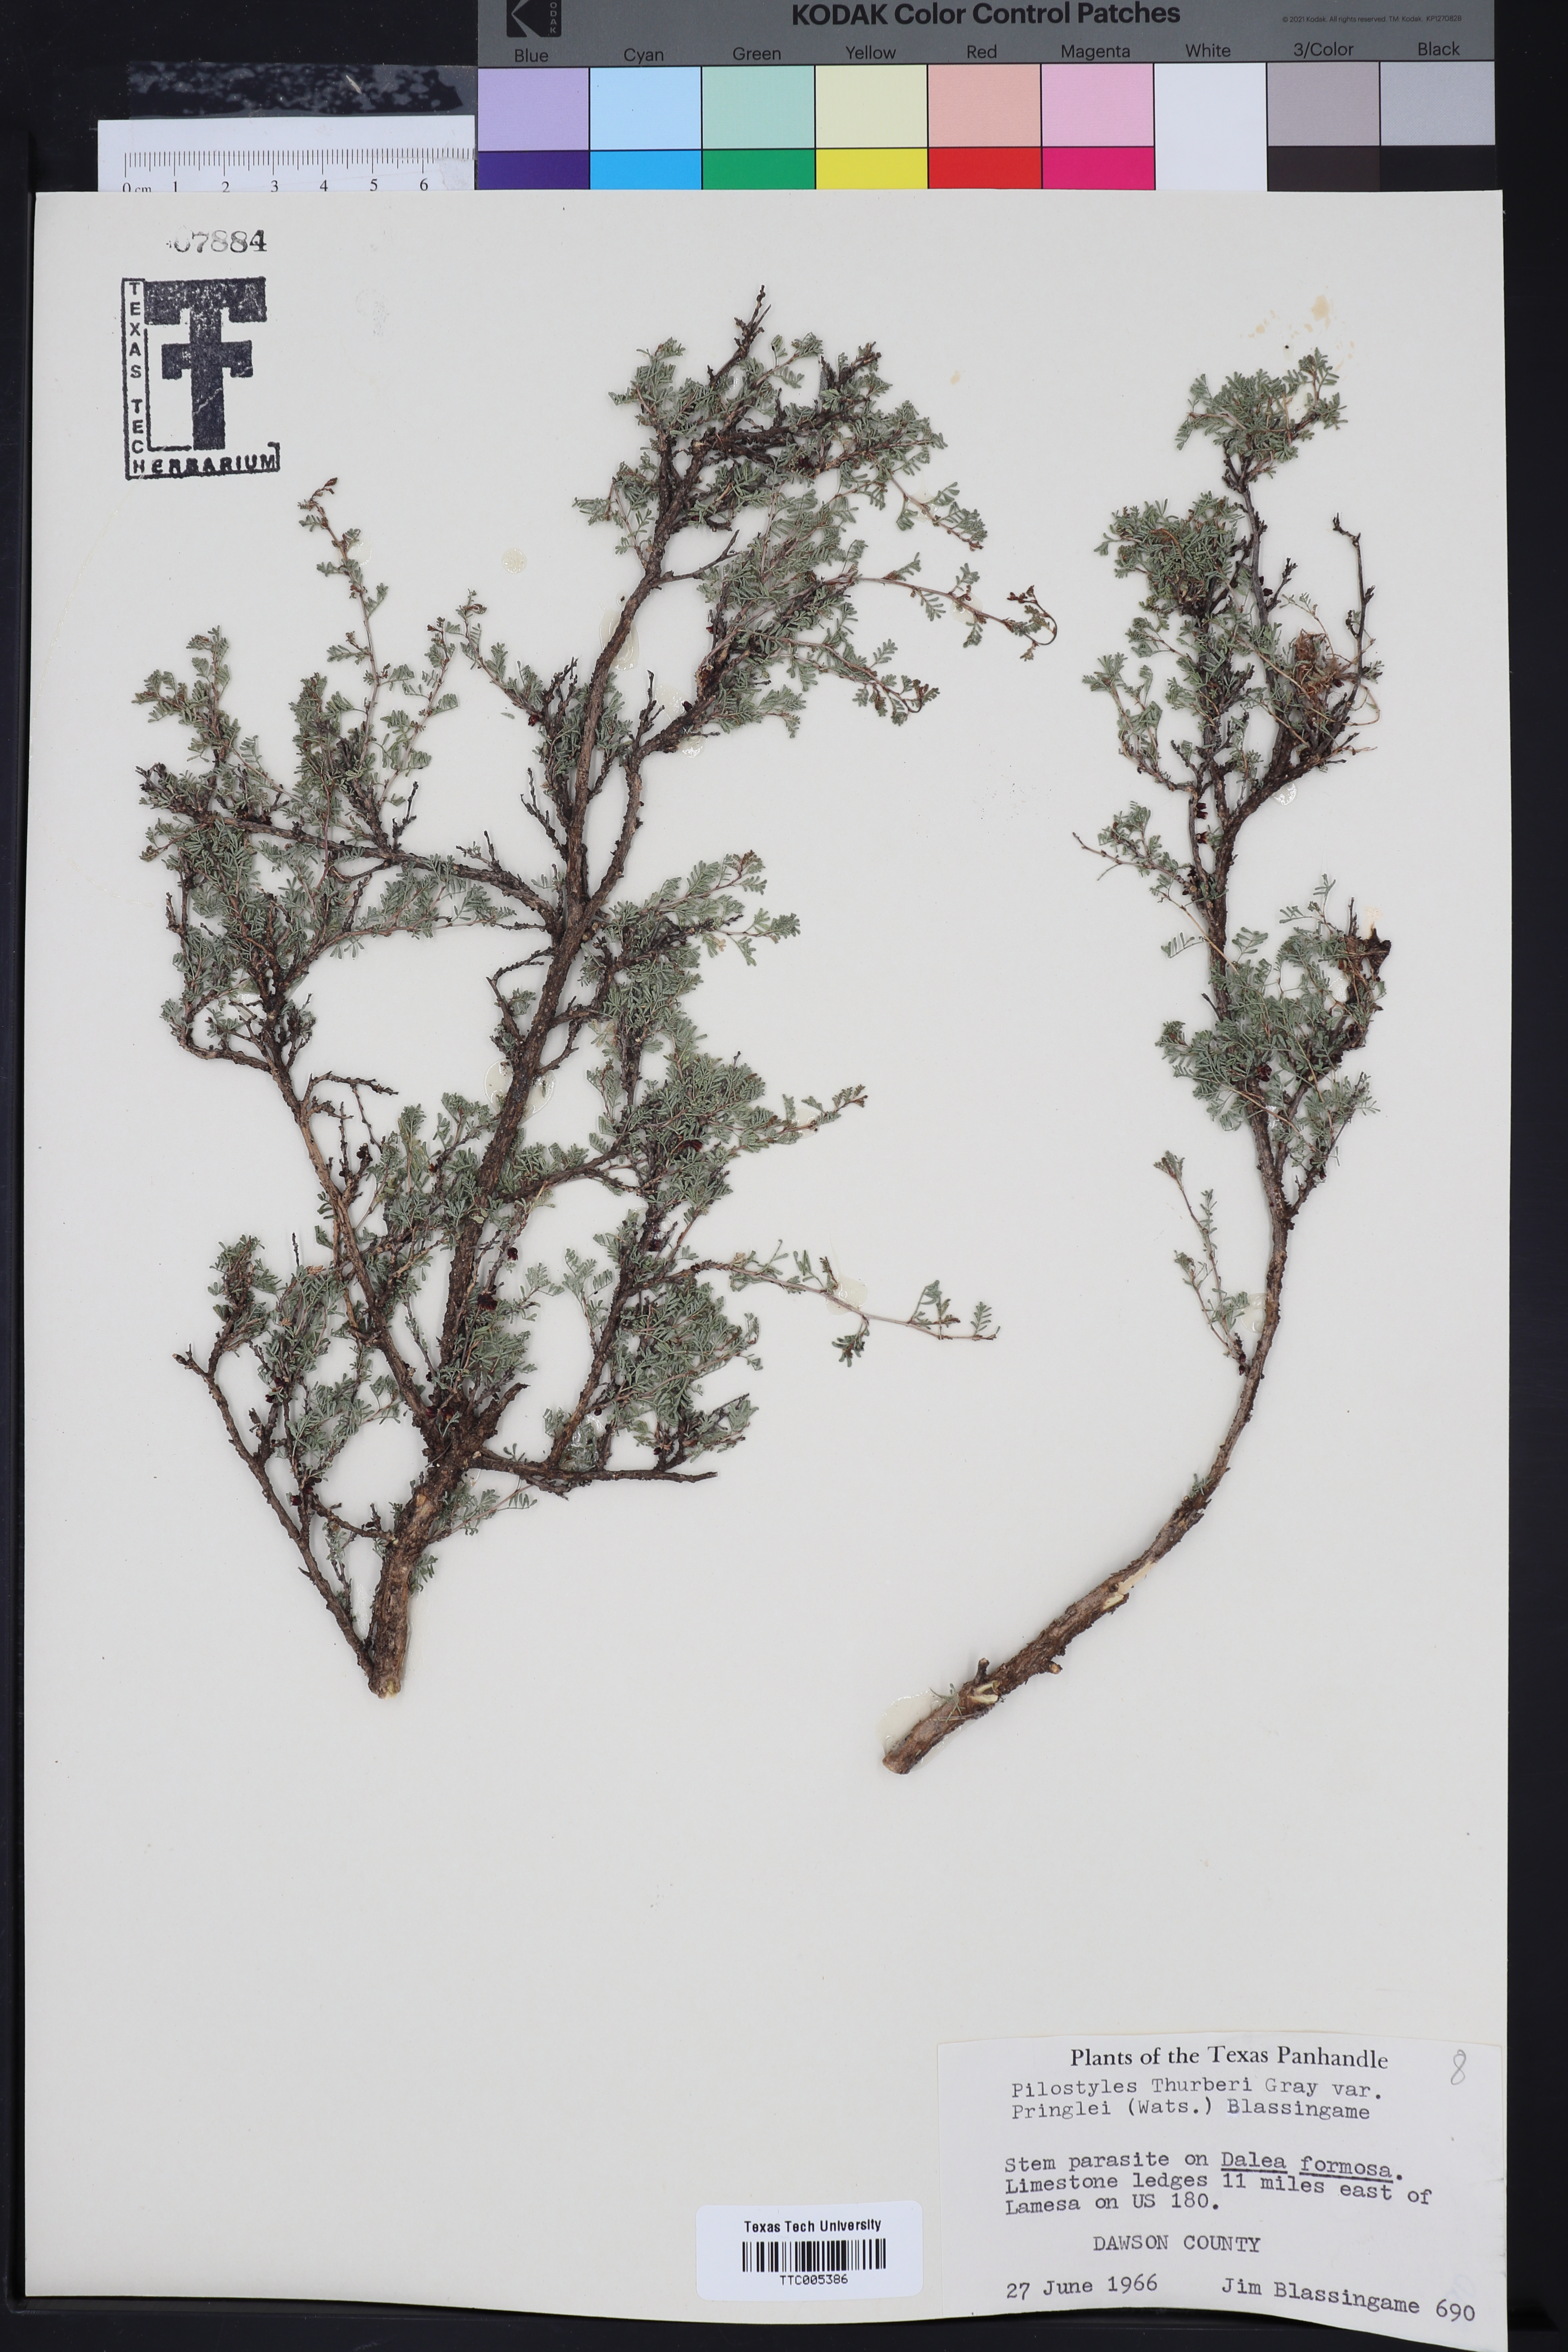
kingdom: Plantae
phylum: Tracheophyta
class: Magnoliopsida
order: Cucurbitales
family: Apodanthaceae
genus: Pilostyles
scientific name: Pilostyles thurberi
